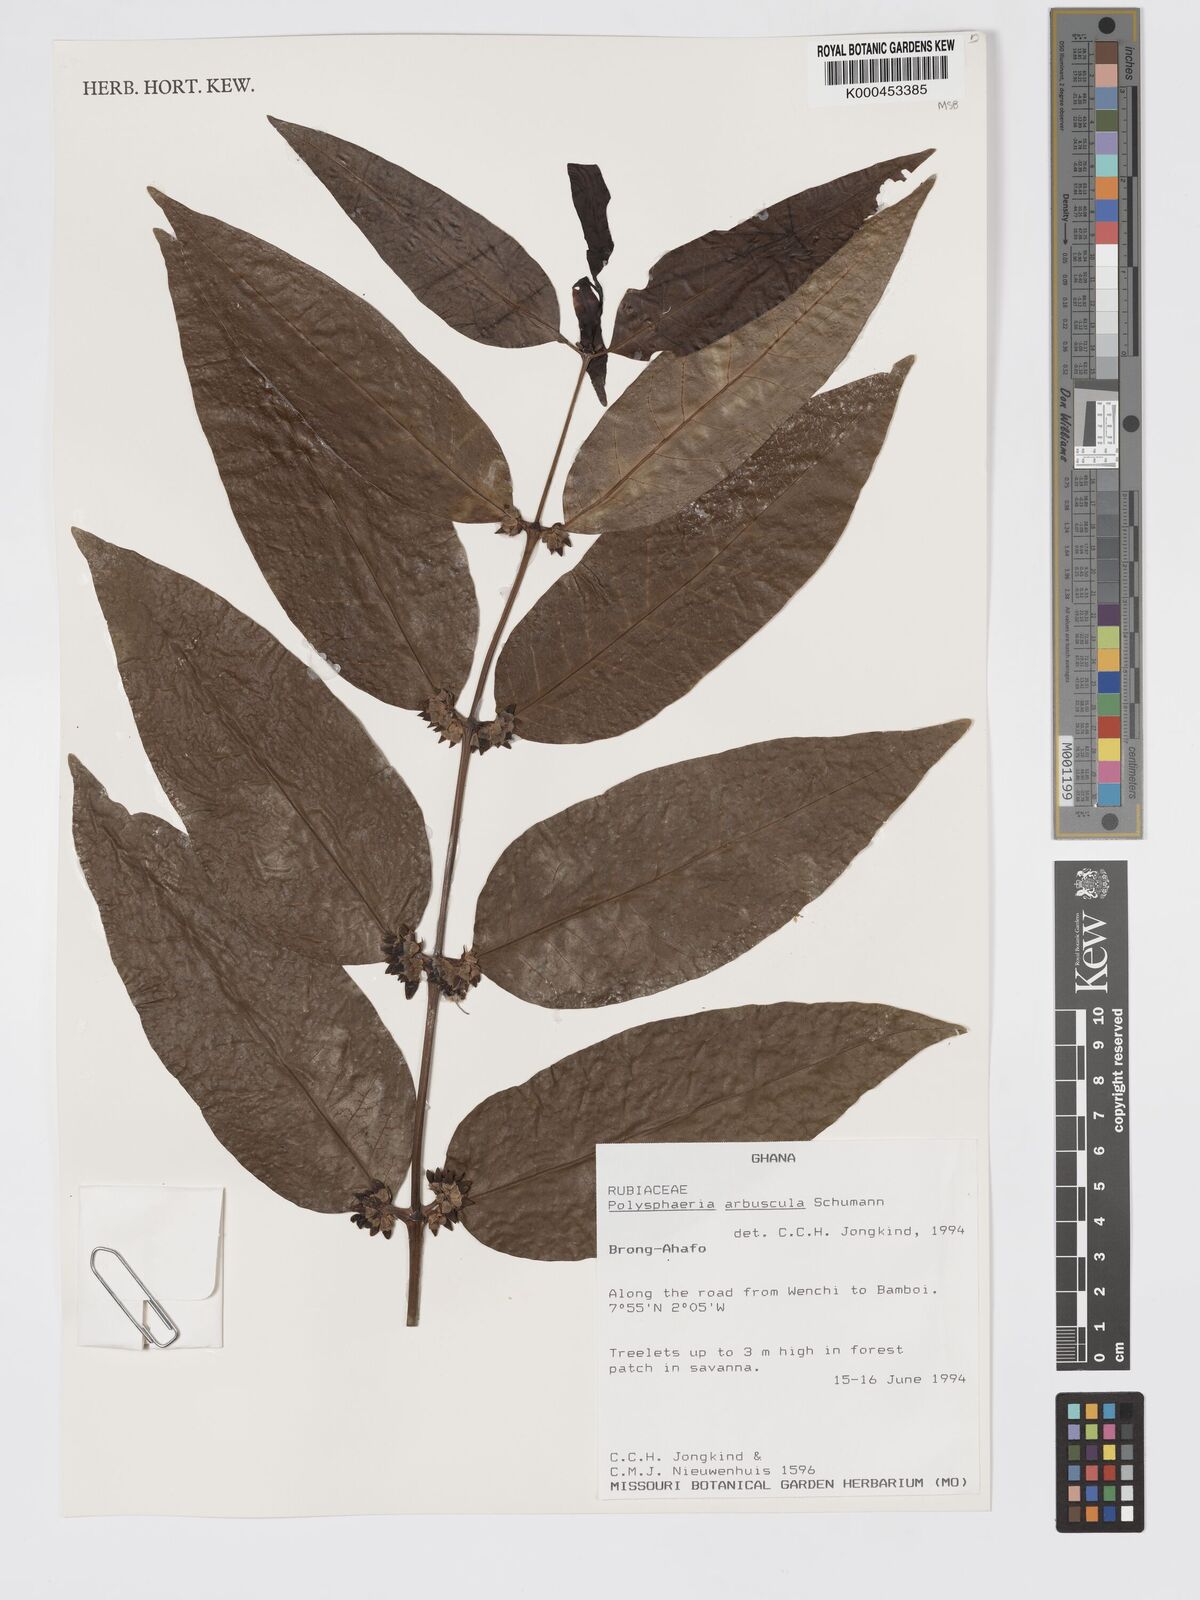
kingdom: Plantae
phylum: Tracheophyta
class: Magnoliopsida
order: Gentianales
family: Rubiaceae
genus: Polysphaeria
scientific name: Polysphaeria arbuscula
